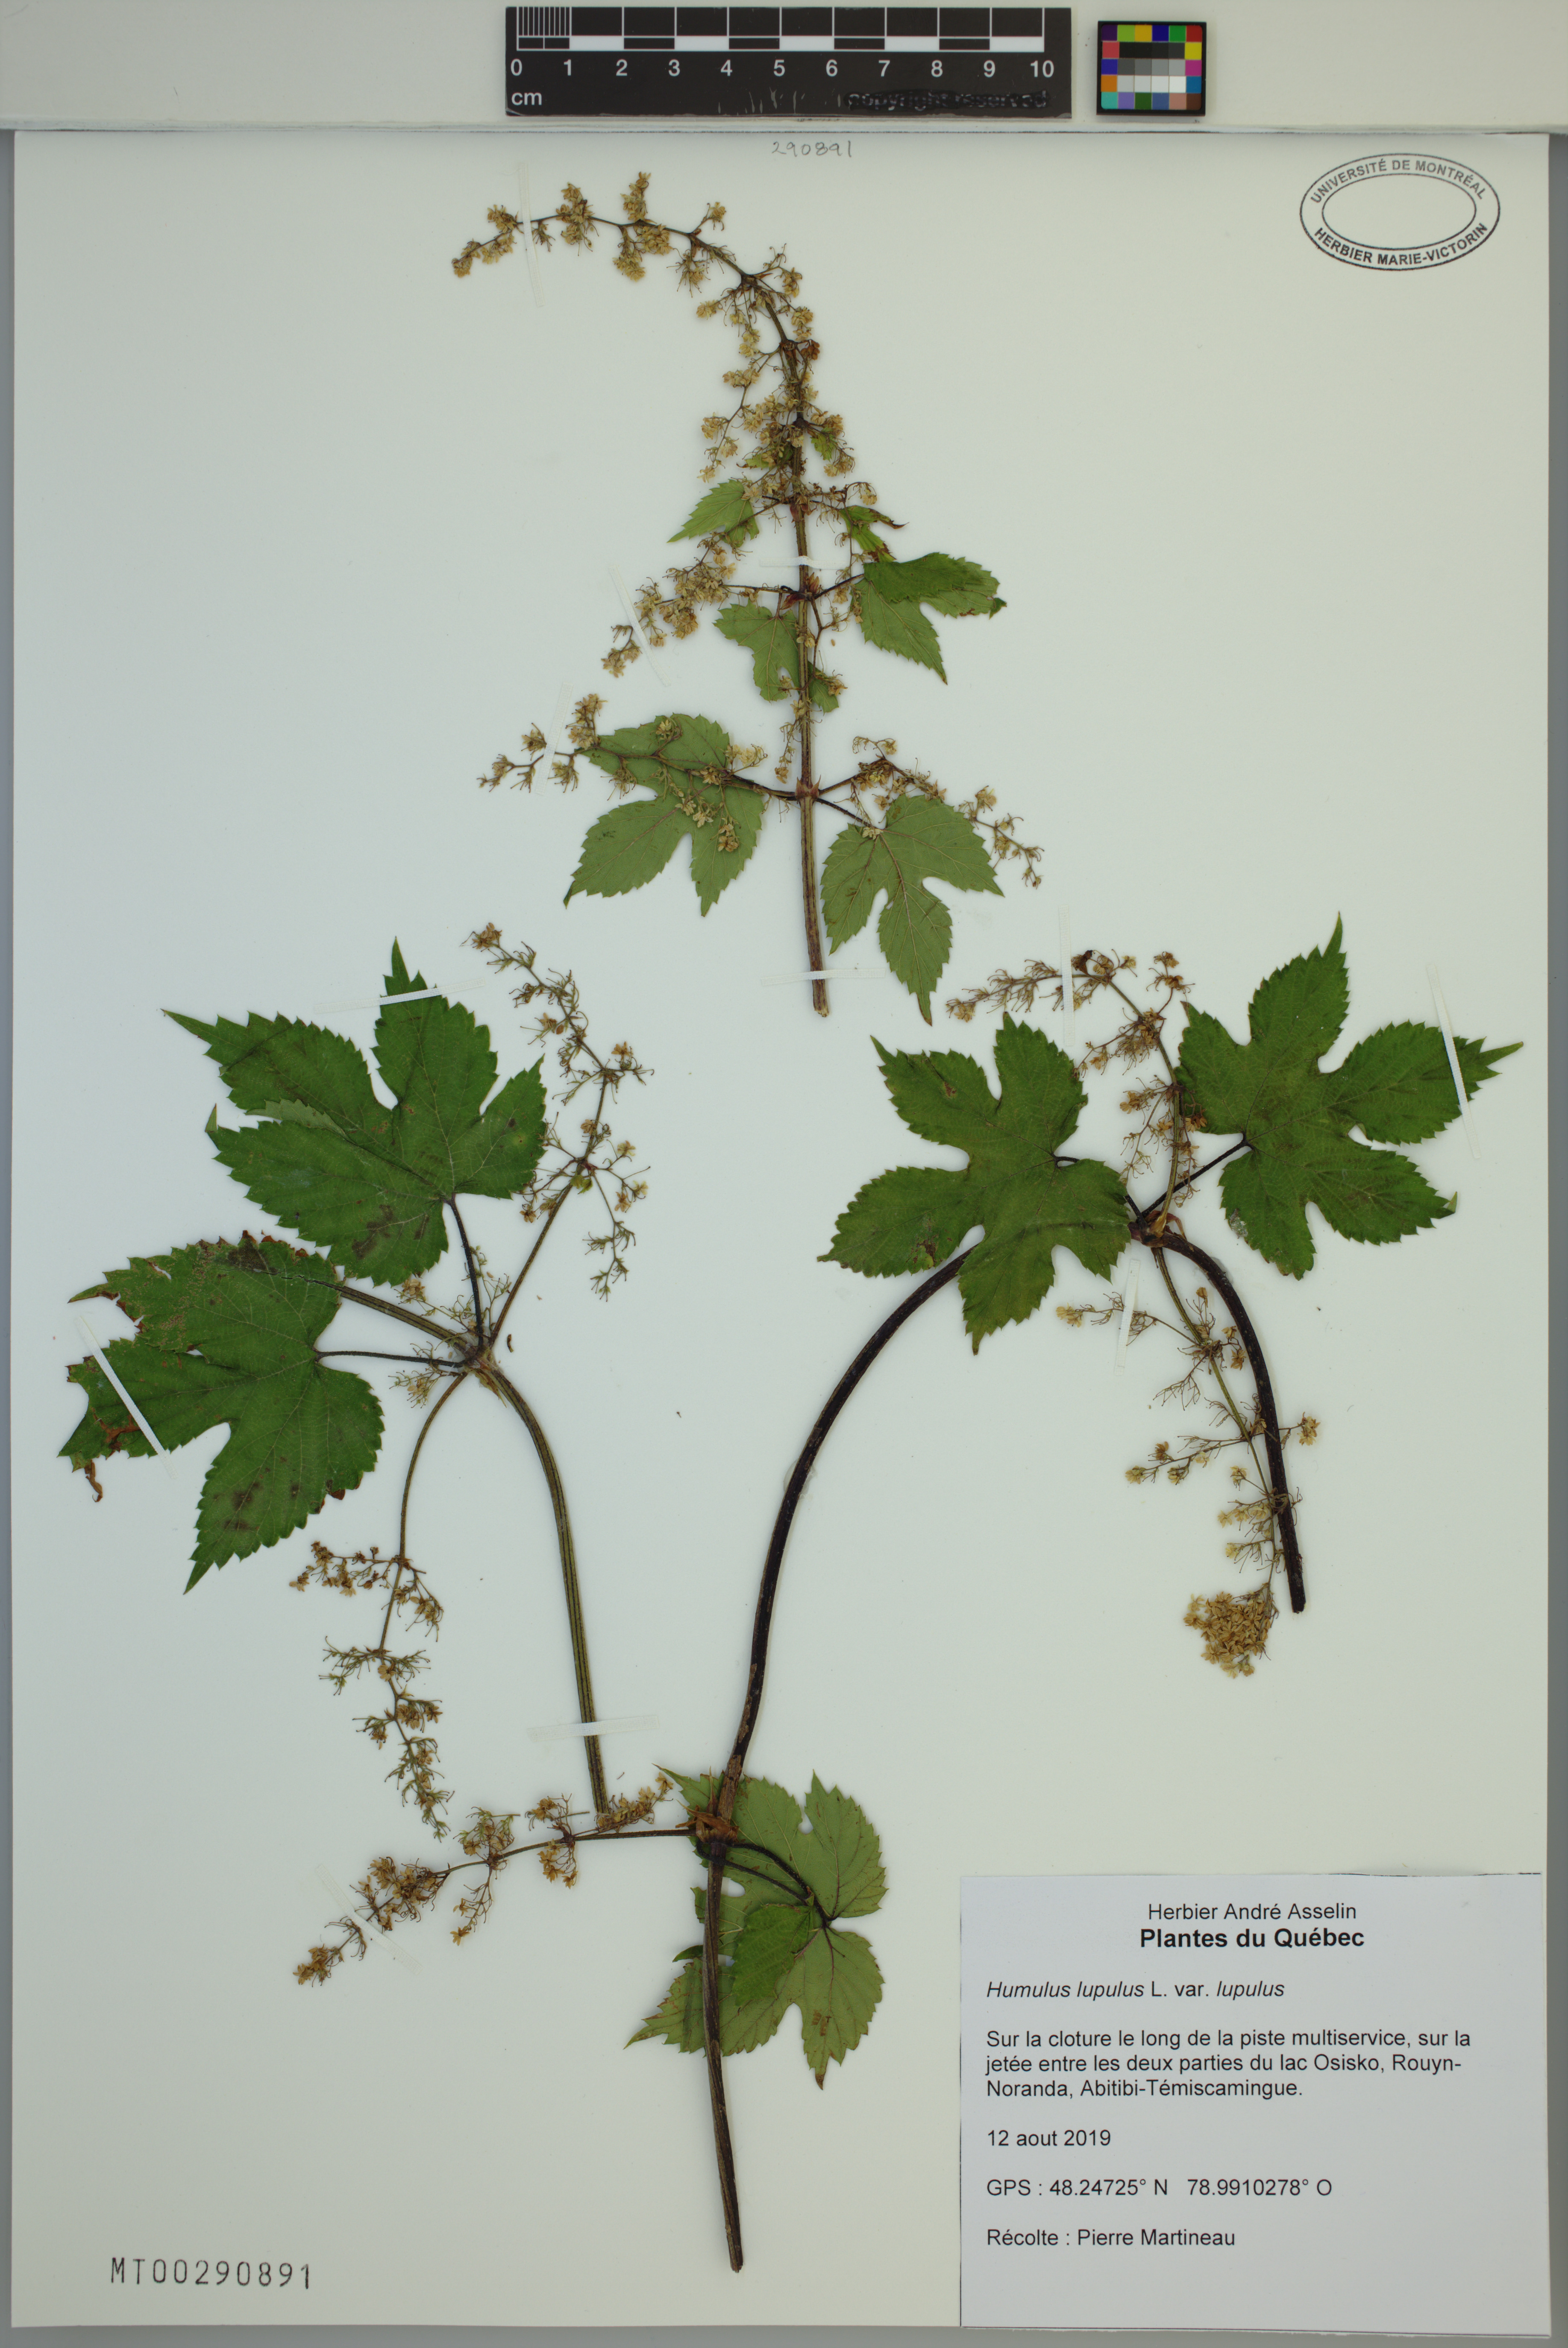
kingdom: Plantae
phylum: Tracheophyta
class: Magnoliopsida
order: Rosales
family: Cannabaceae
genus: Humulus
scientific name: Humulus lupulus
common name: Hop
